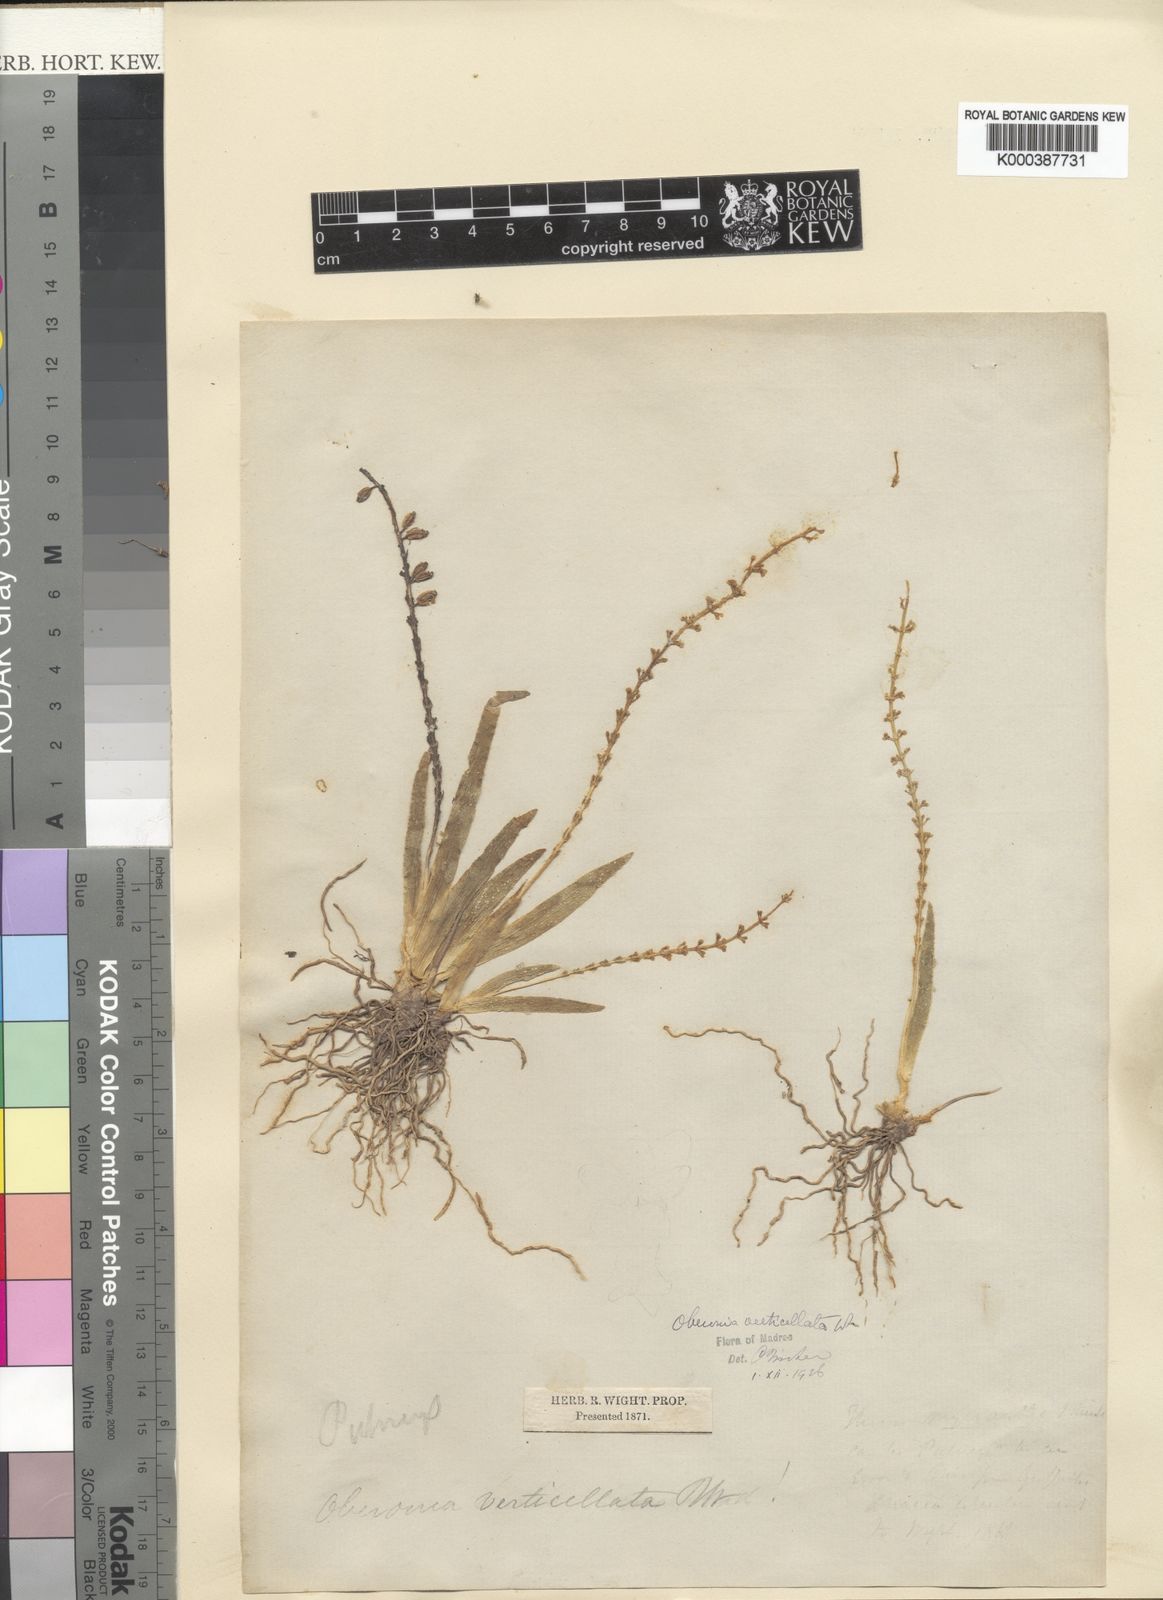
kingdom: Plantae
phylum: Tracheophyta
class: Liliopsida
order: Asparagales
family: Orchidaceae
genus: Oberonia
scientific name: Oberonia verticillata
